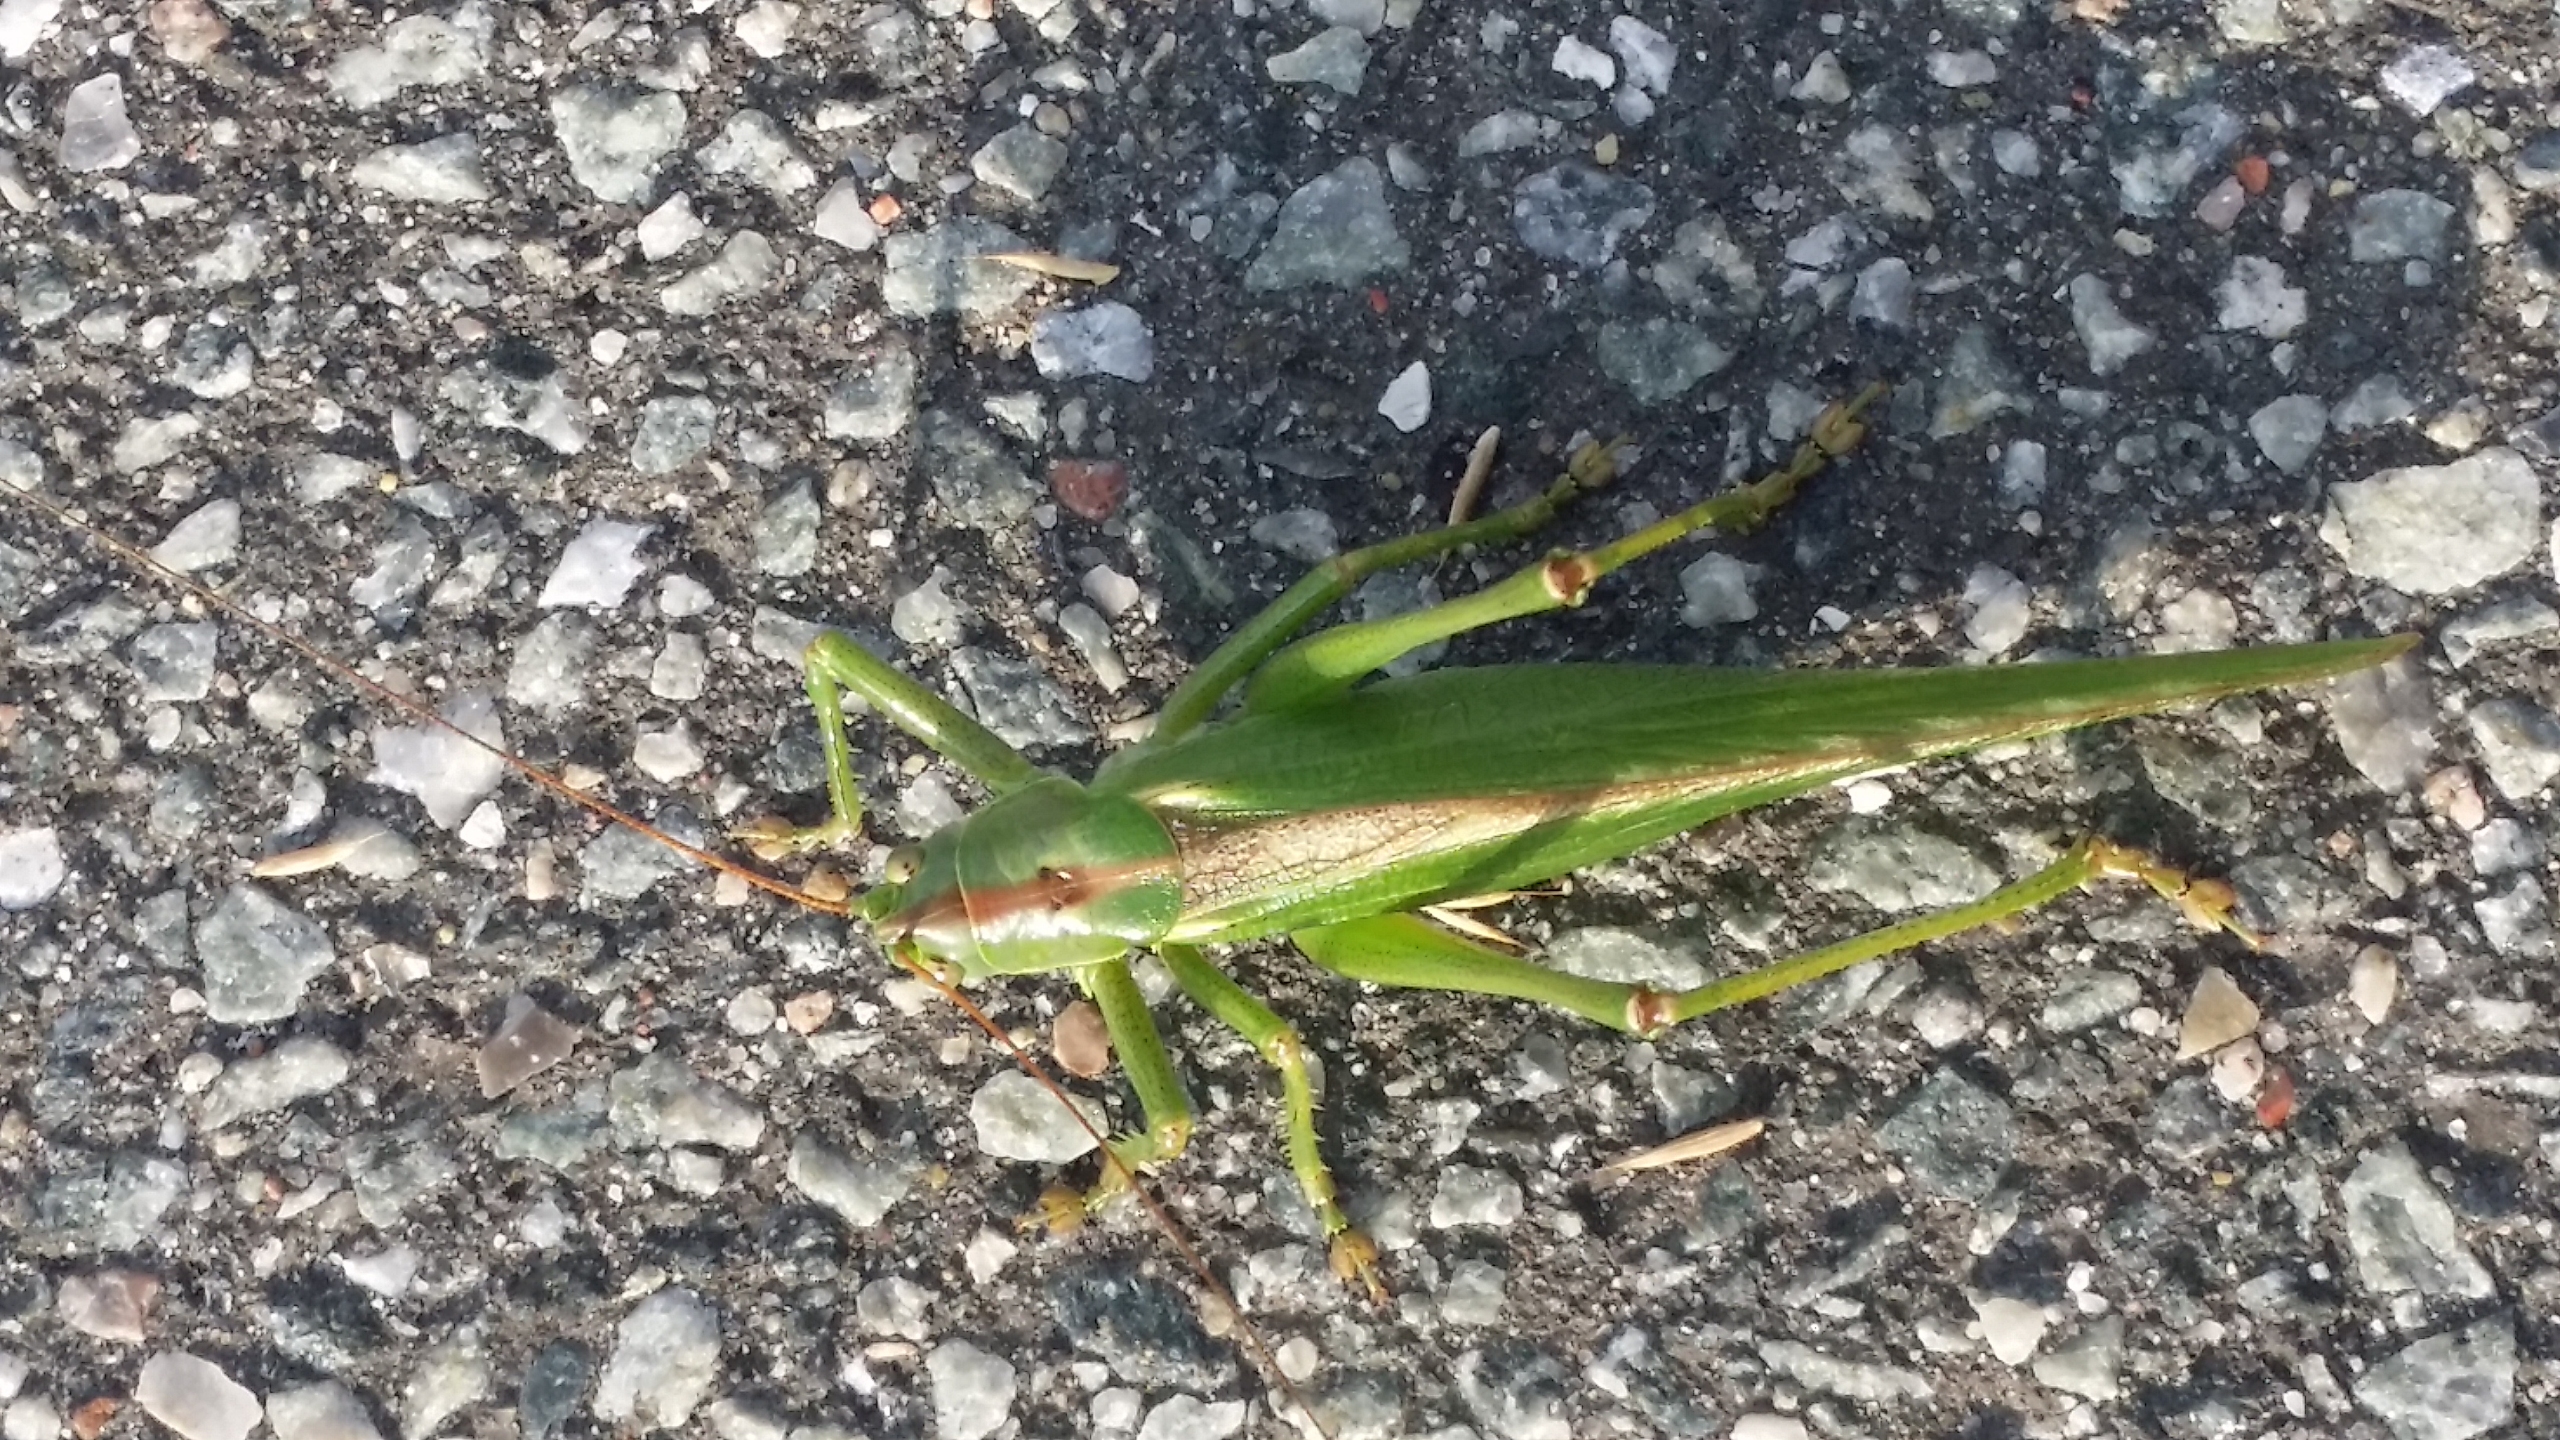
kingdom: Animalia
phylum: Arthropoda
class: Insecta
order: Orthoptera
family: Tettigoniidae
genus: Tettigonia
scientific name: Tettigonia viridissima
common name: Stor grøn løvgræshoppe
